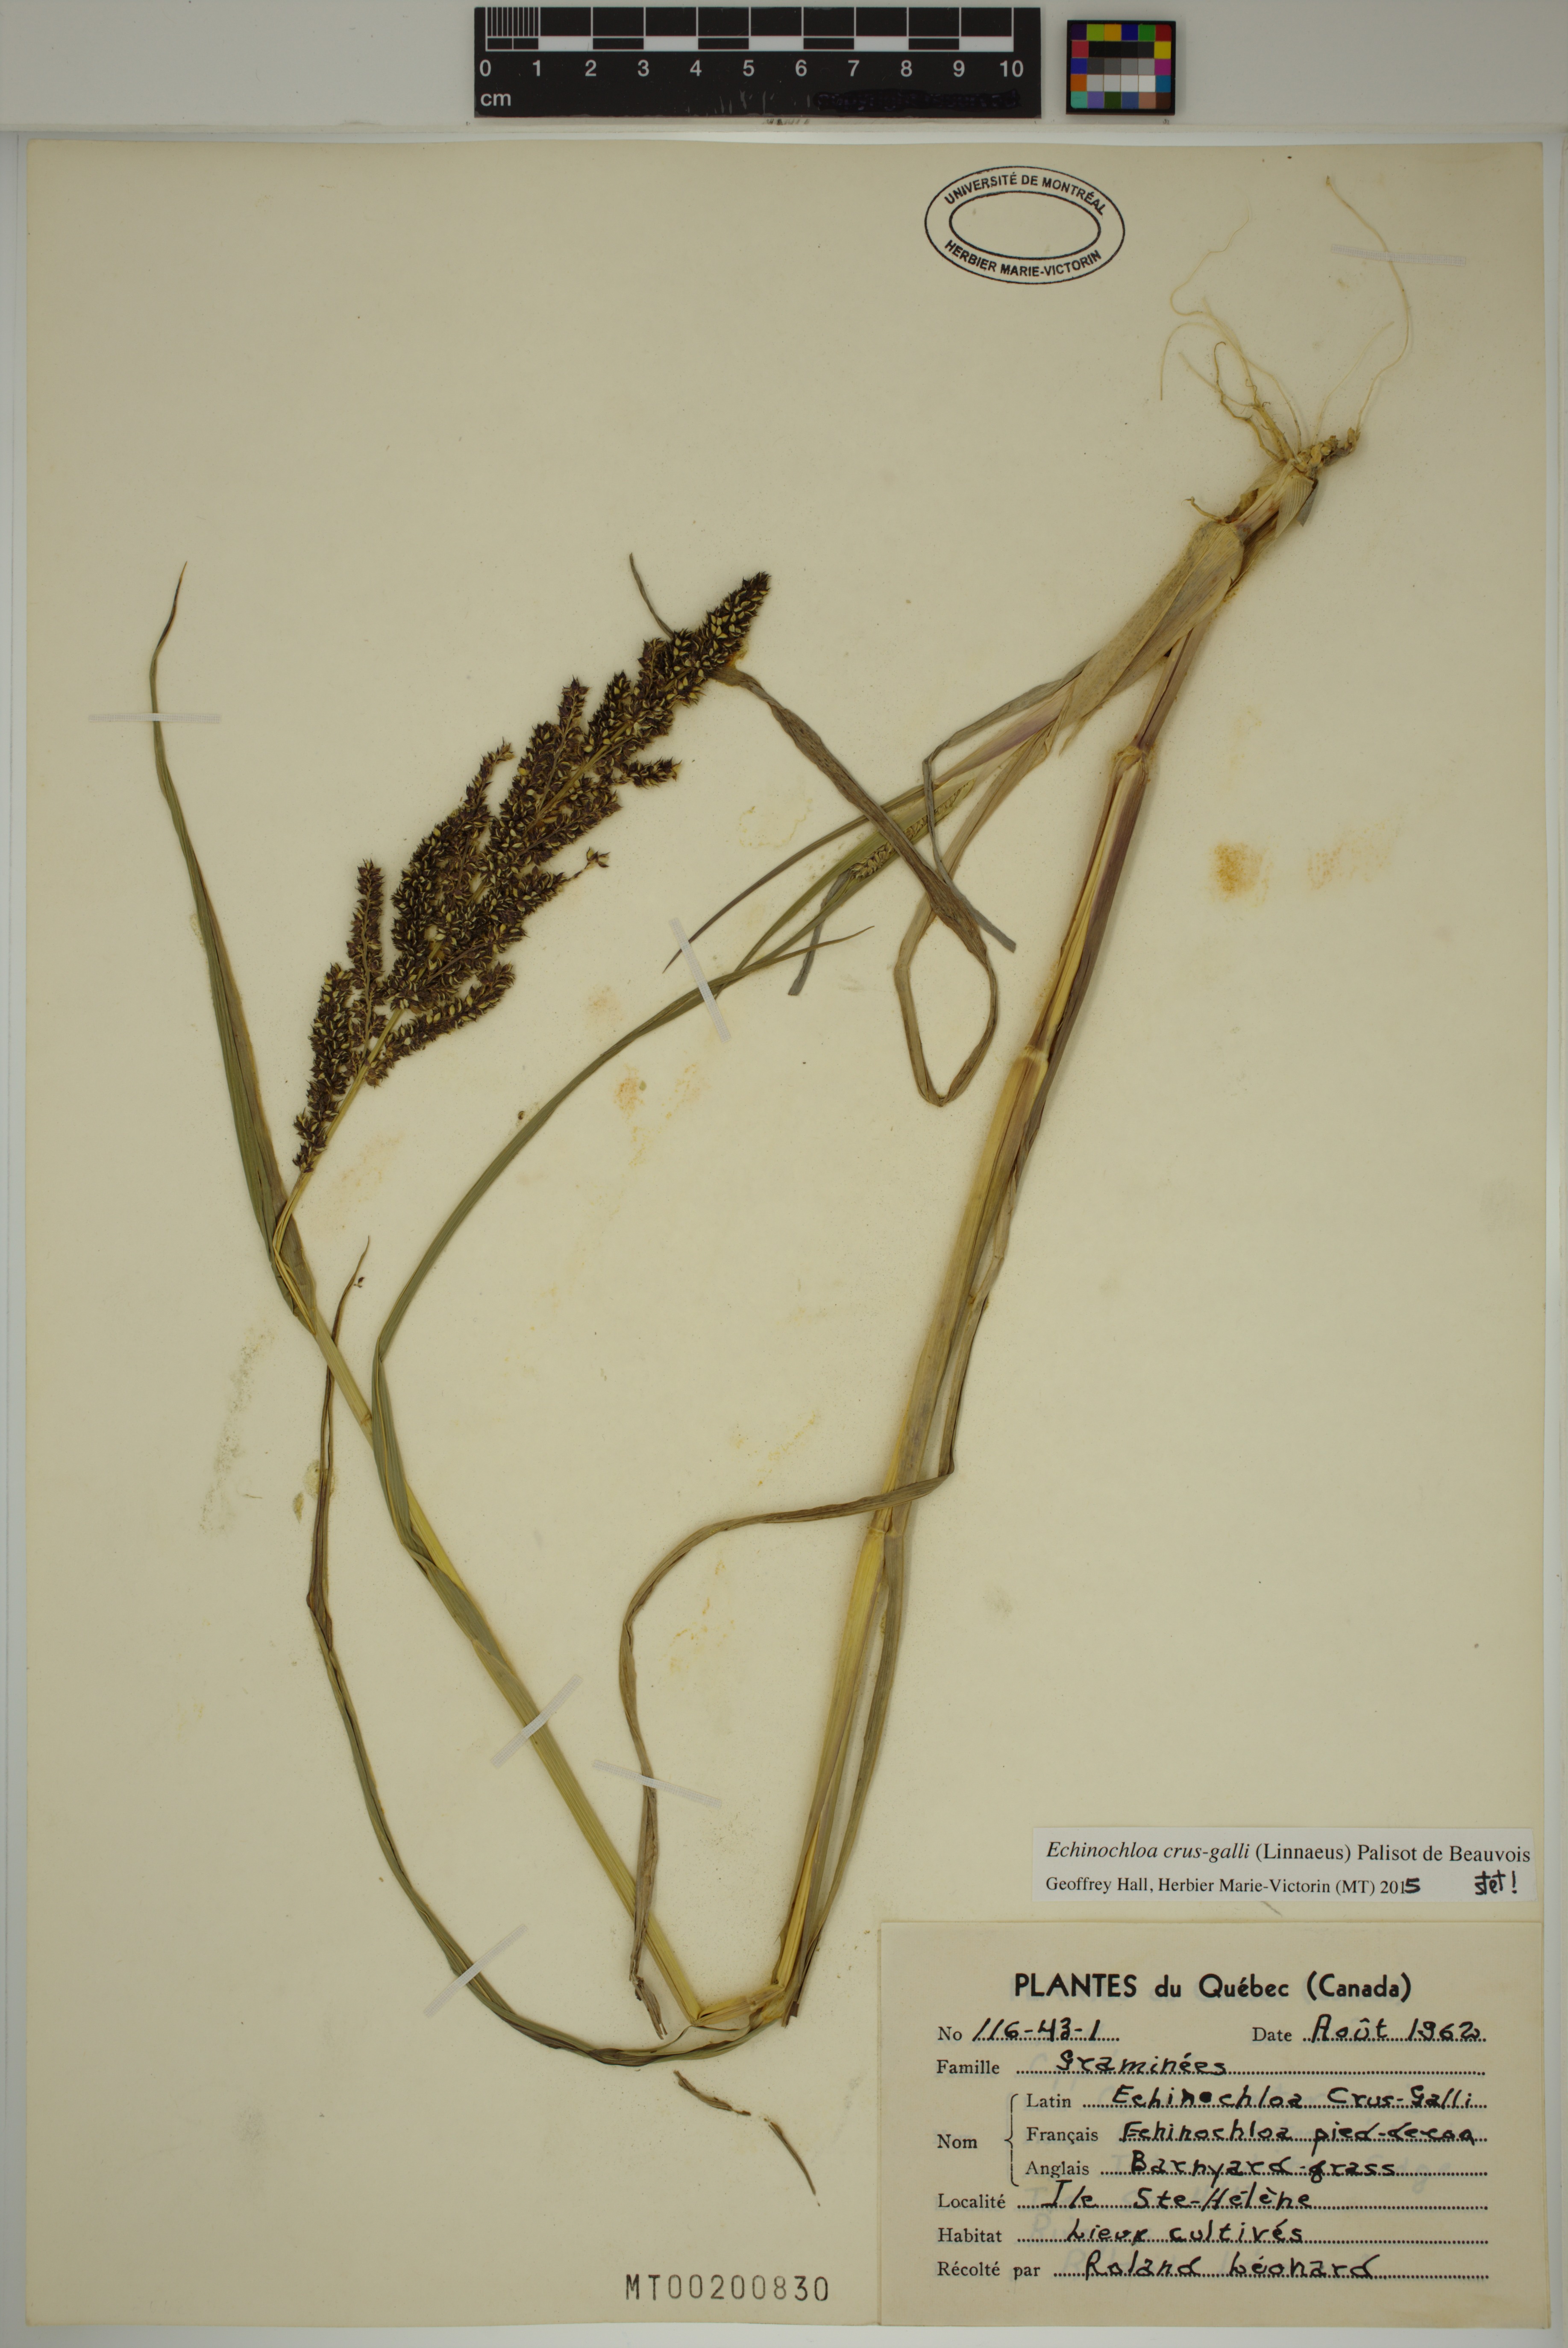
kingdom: Plantae
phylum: Tracheophyta
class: Liliopsida
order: Poales
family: Poaceae
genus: Echinochloa
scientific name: Echinochloa crus-galli
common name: Cockspur
